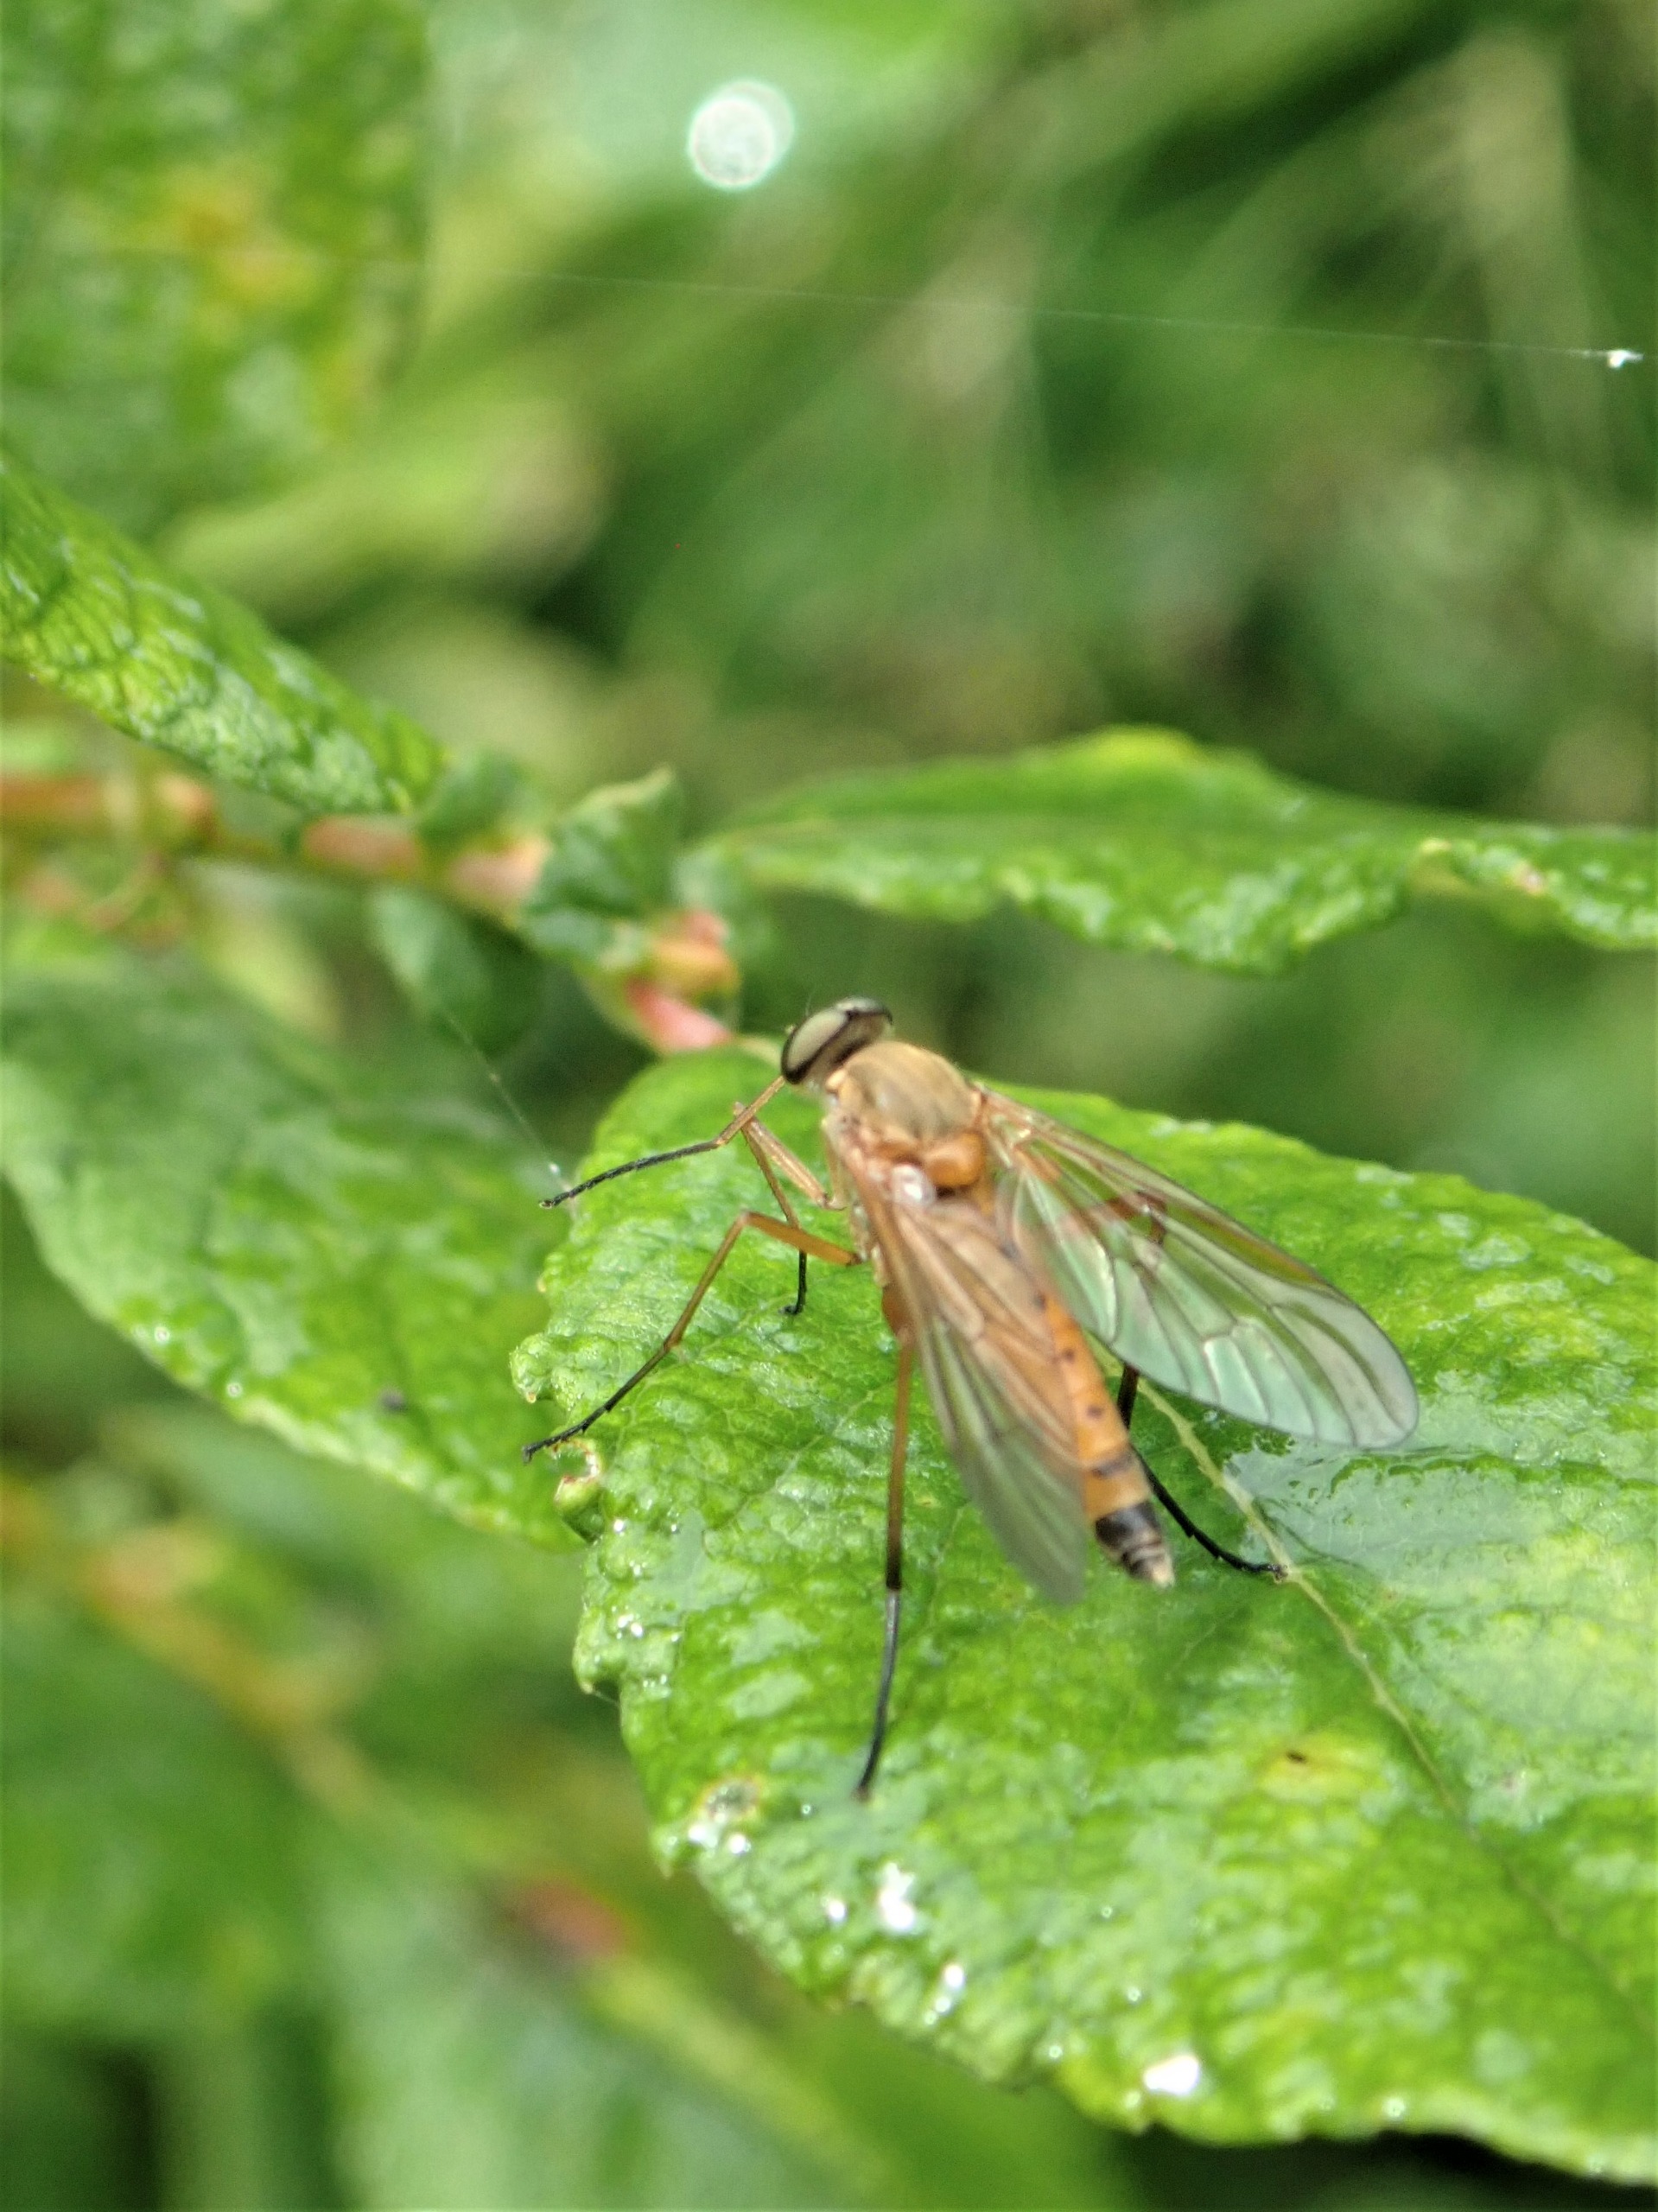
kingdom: Animalia
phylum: Arthropoda
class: Insecta
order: Diptera
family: Rhagionidae
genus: Rhagio
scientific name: Rhagio tringaria
